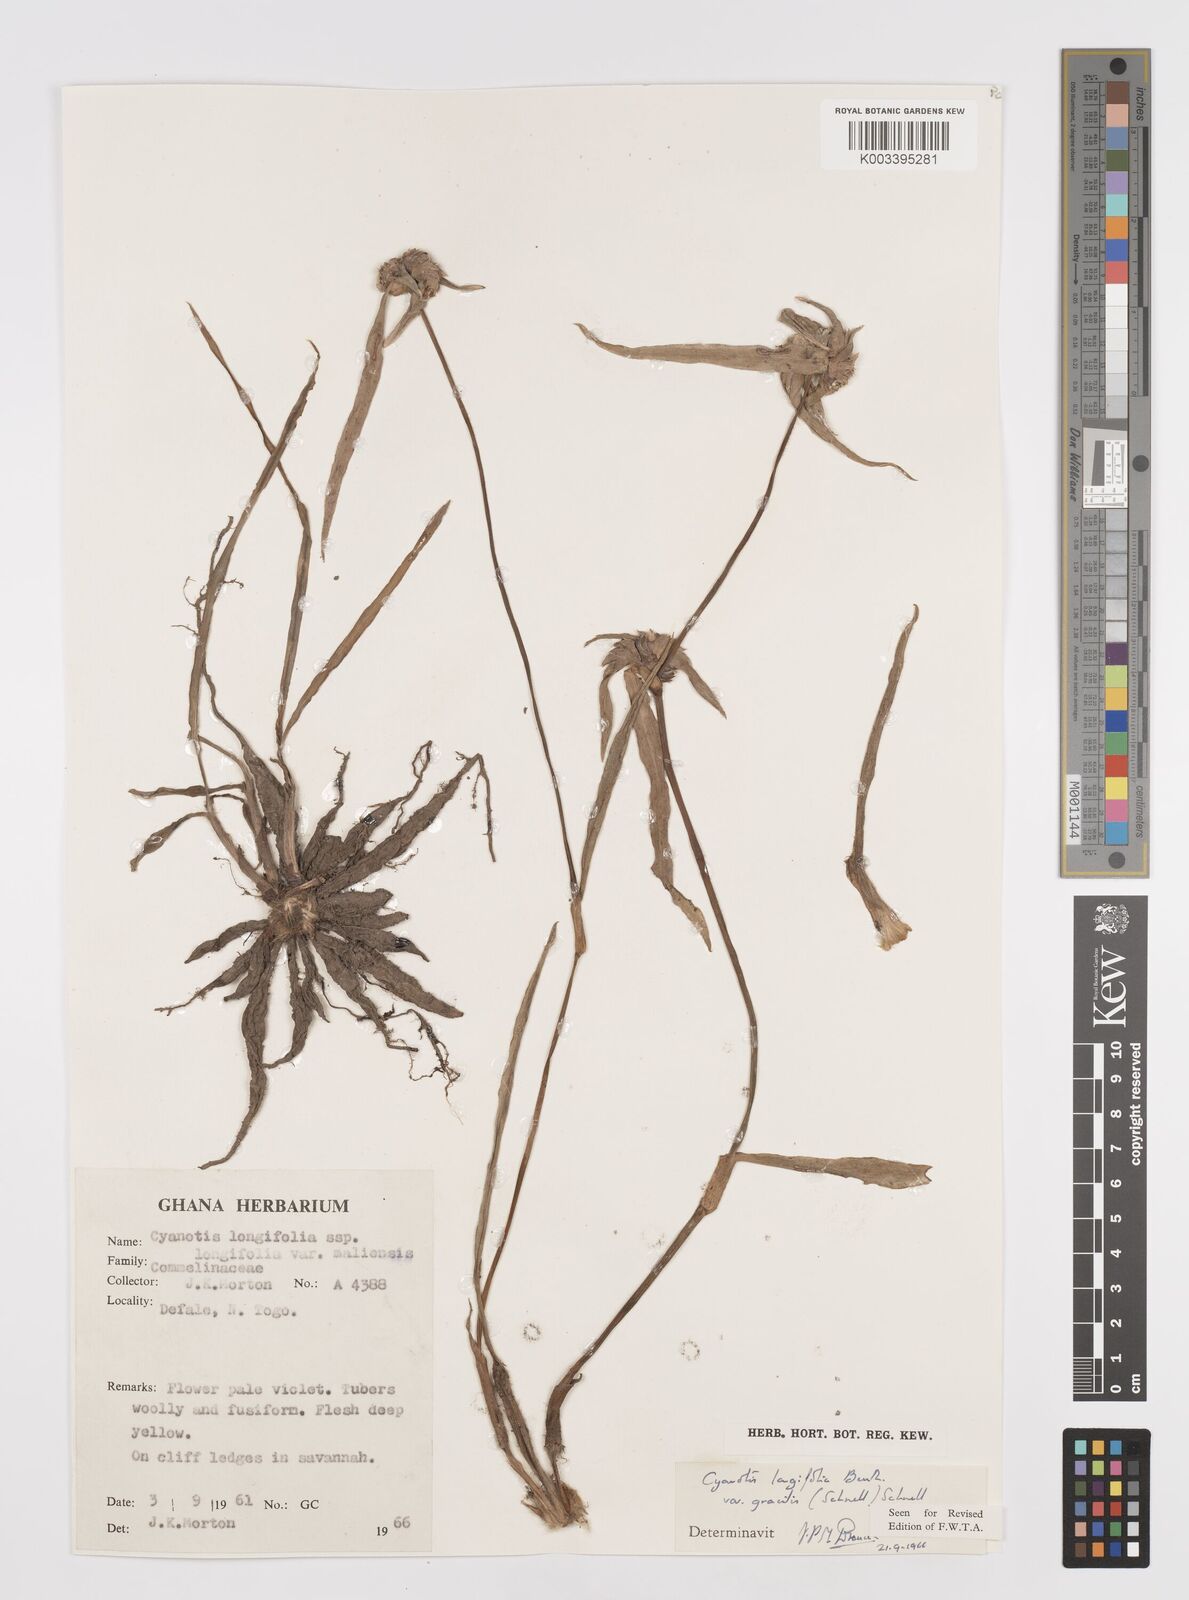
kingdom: Plantae
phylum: Tracheophyta
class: Liliopsida
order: Commelinales
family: Commelinaceae
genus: Cyanotis
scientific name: Cyanotis longifolia
